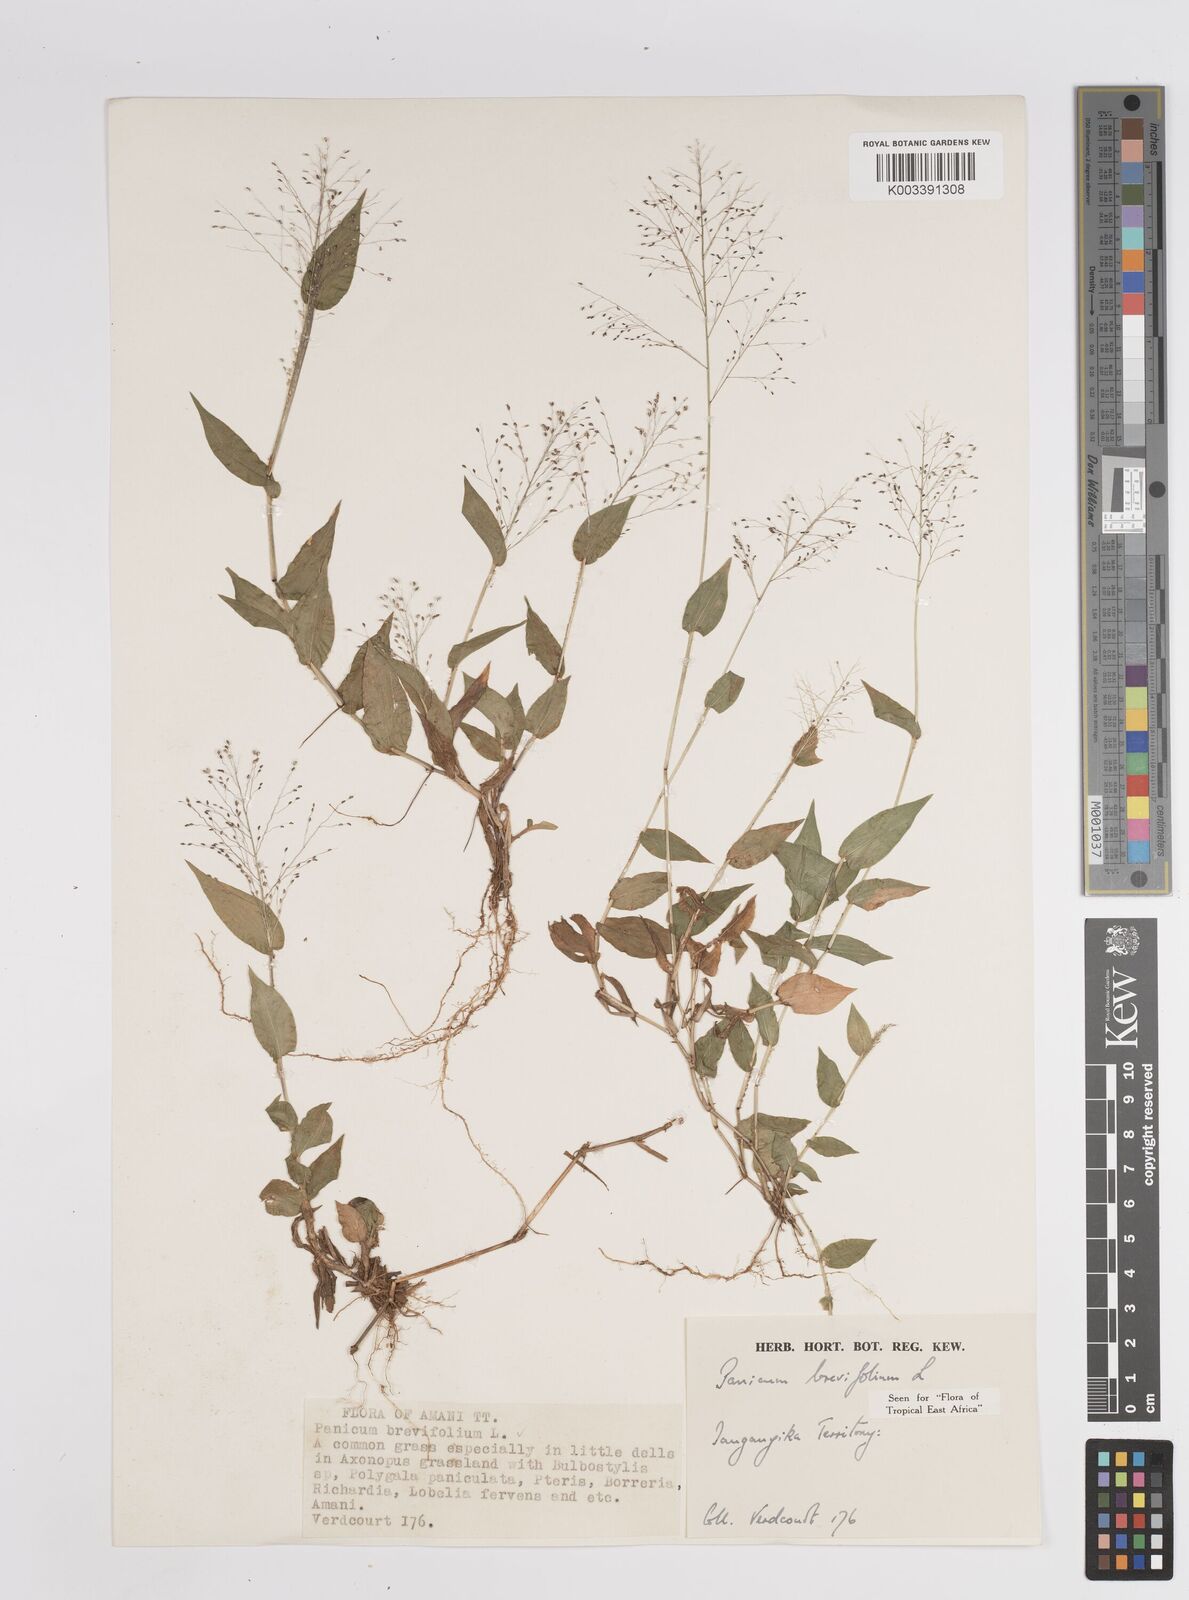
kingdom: Plantae
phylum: Tracheophyta
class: Liliopsida
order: Poales
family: Poaceae
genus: Panicum
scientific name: Panicum brevifolium
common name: Shortleaf panic grass
